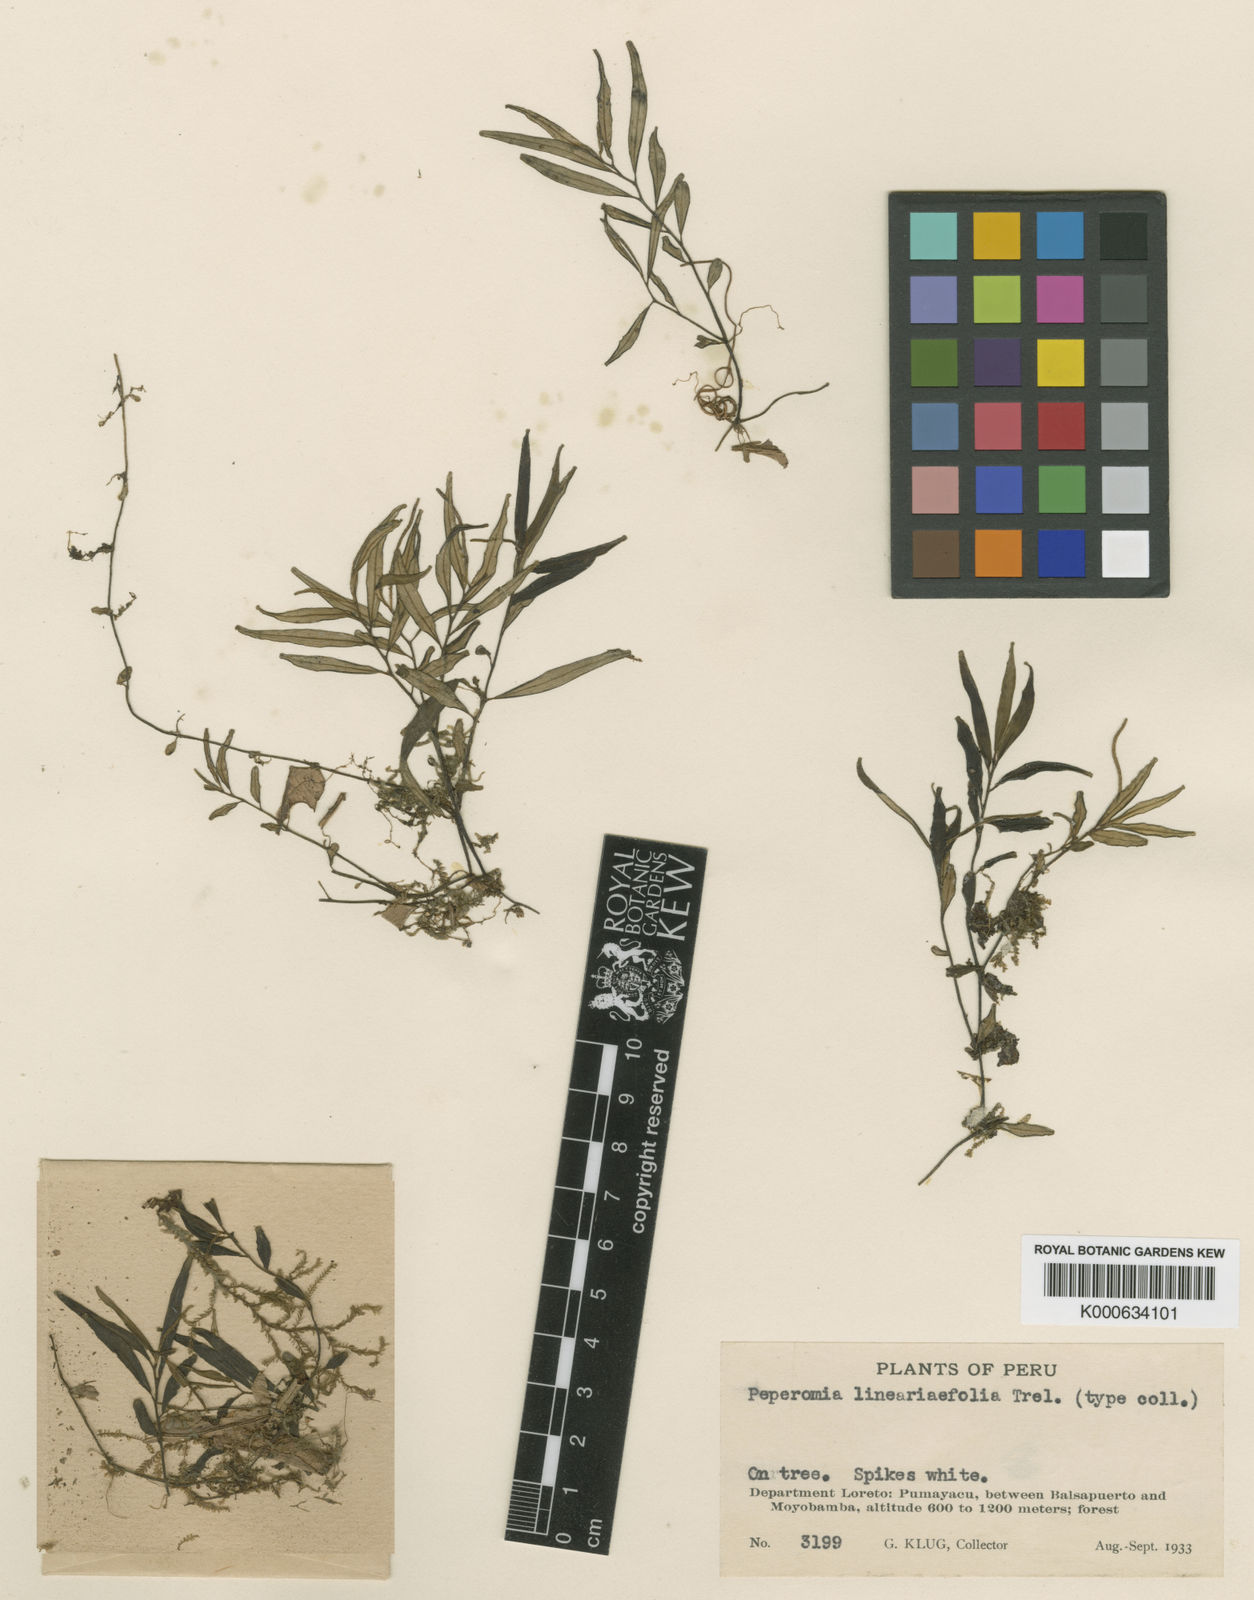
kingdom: Plantae
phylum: Tracheophyta
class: Magnoliopsida
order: Piperales
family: Piperaceae
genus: Peperomia
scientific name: Peperomia hedyotidea
